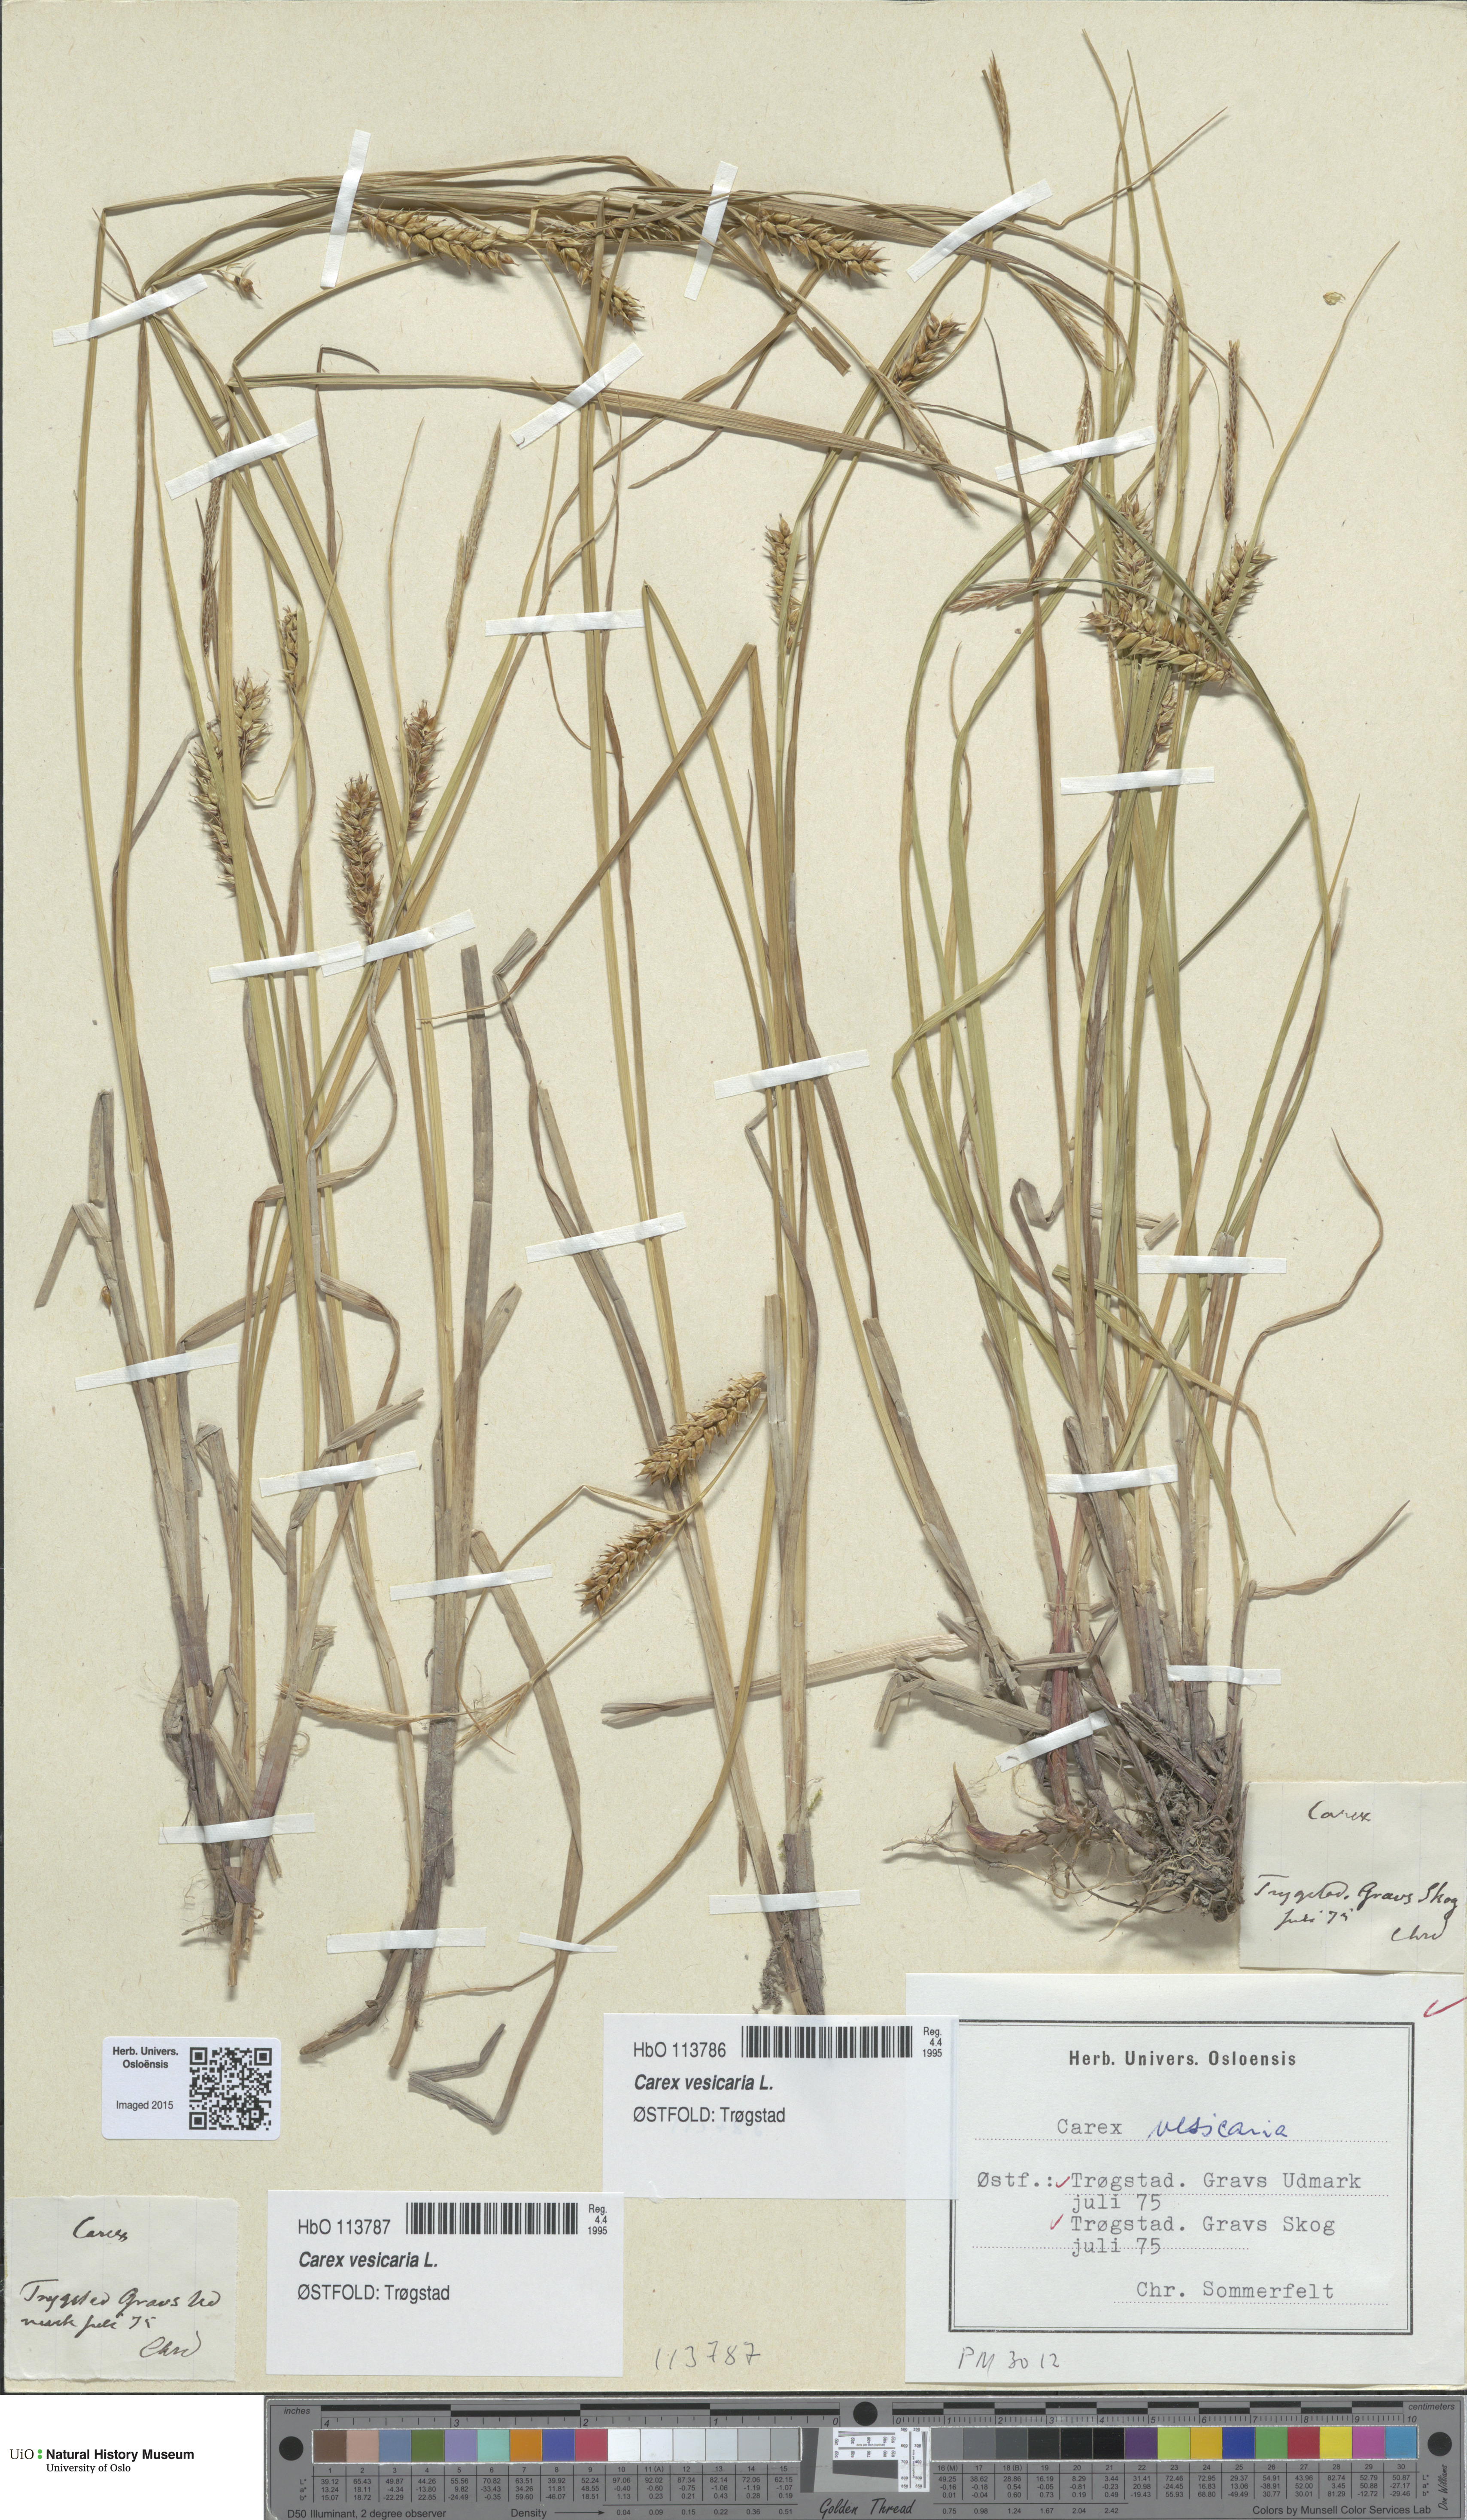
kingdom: Plantae
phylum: Tracheophyta
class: Liliopsida
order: Poales
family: Cyperaceae
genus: Carex
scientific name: Carex vesicaria
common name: Bladder-sedge
